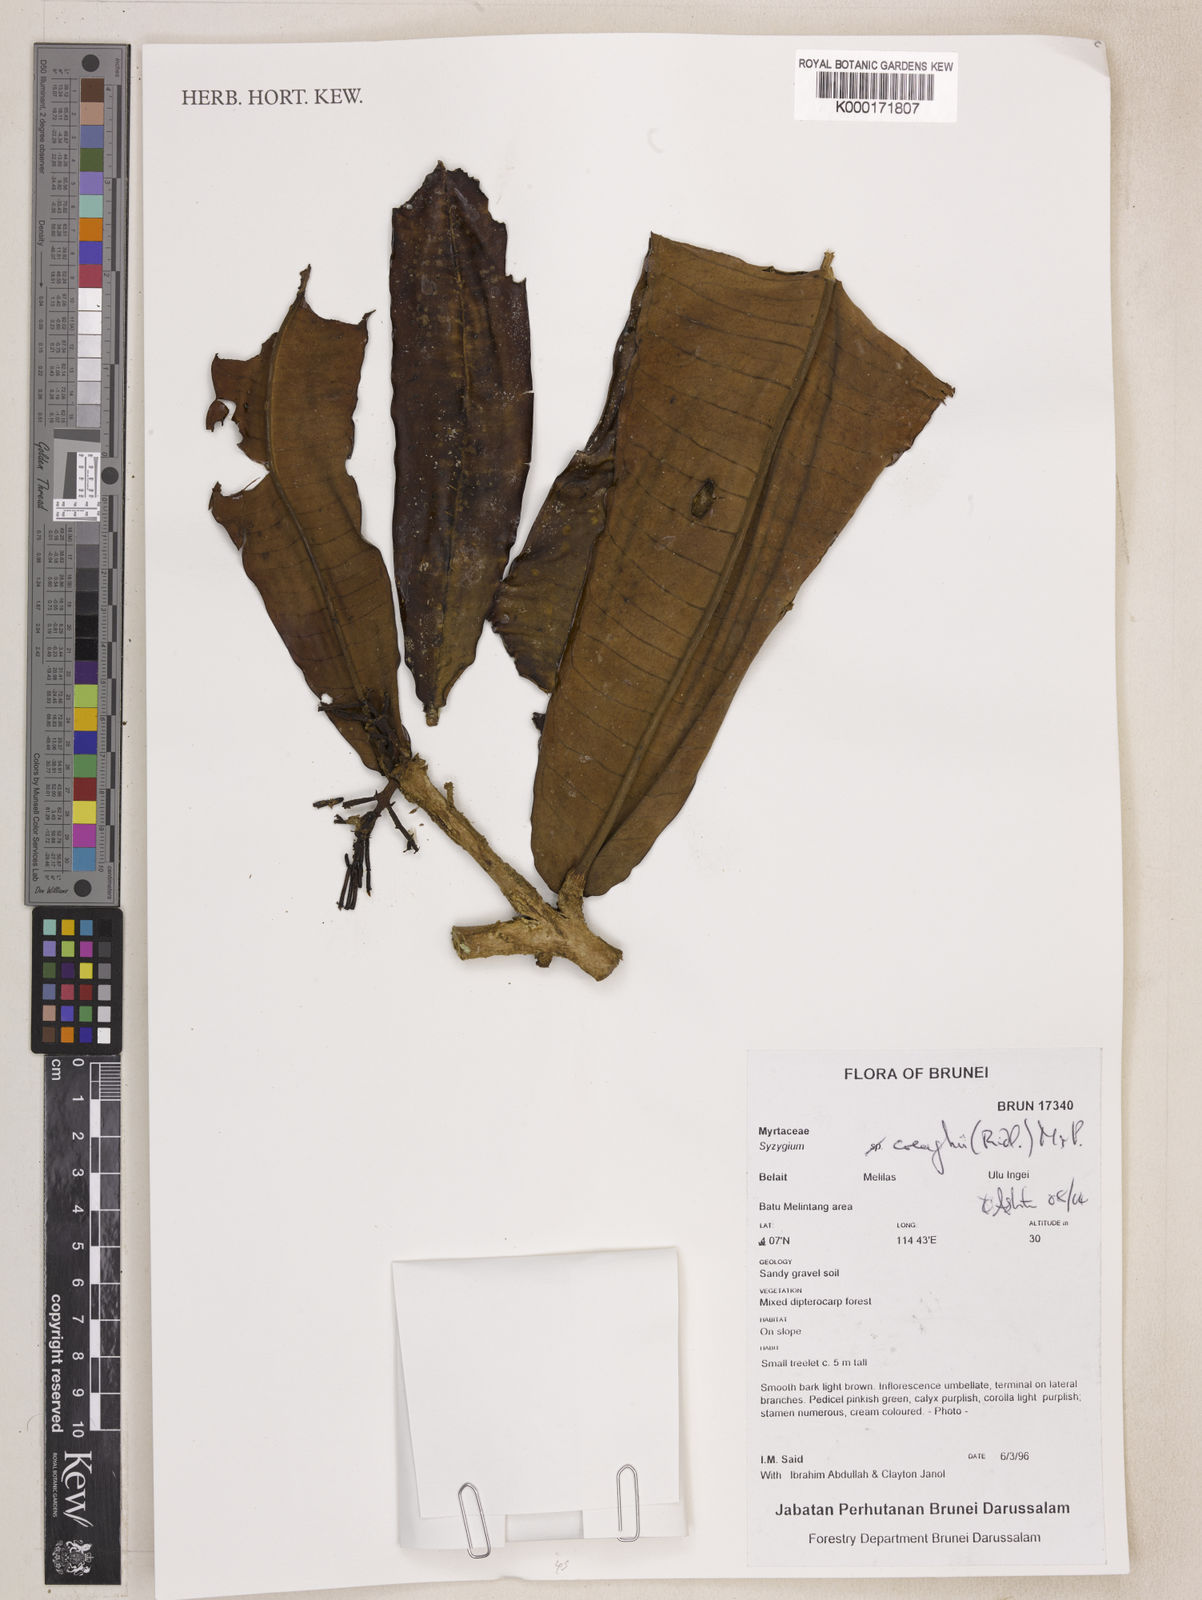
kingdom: Plantae
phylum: Tracheophyta
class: Magnoliopsida
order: Myrtales
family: Myrtaceae
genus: Syzygium
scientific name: Syzygium creaghii
